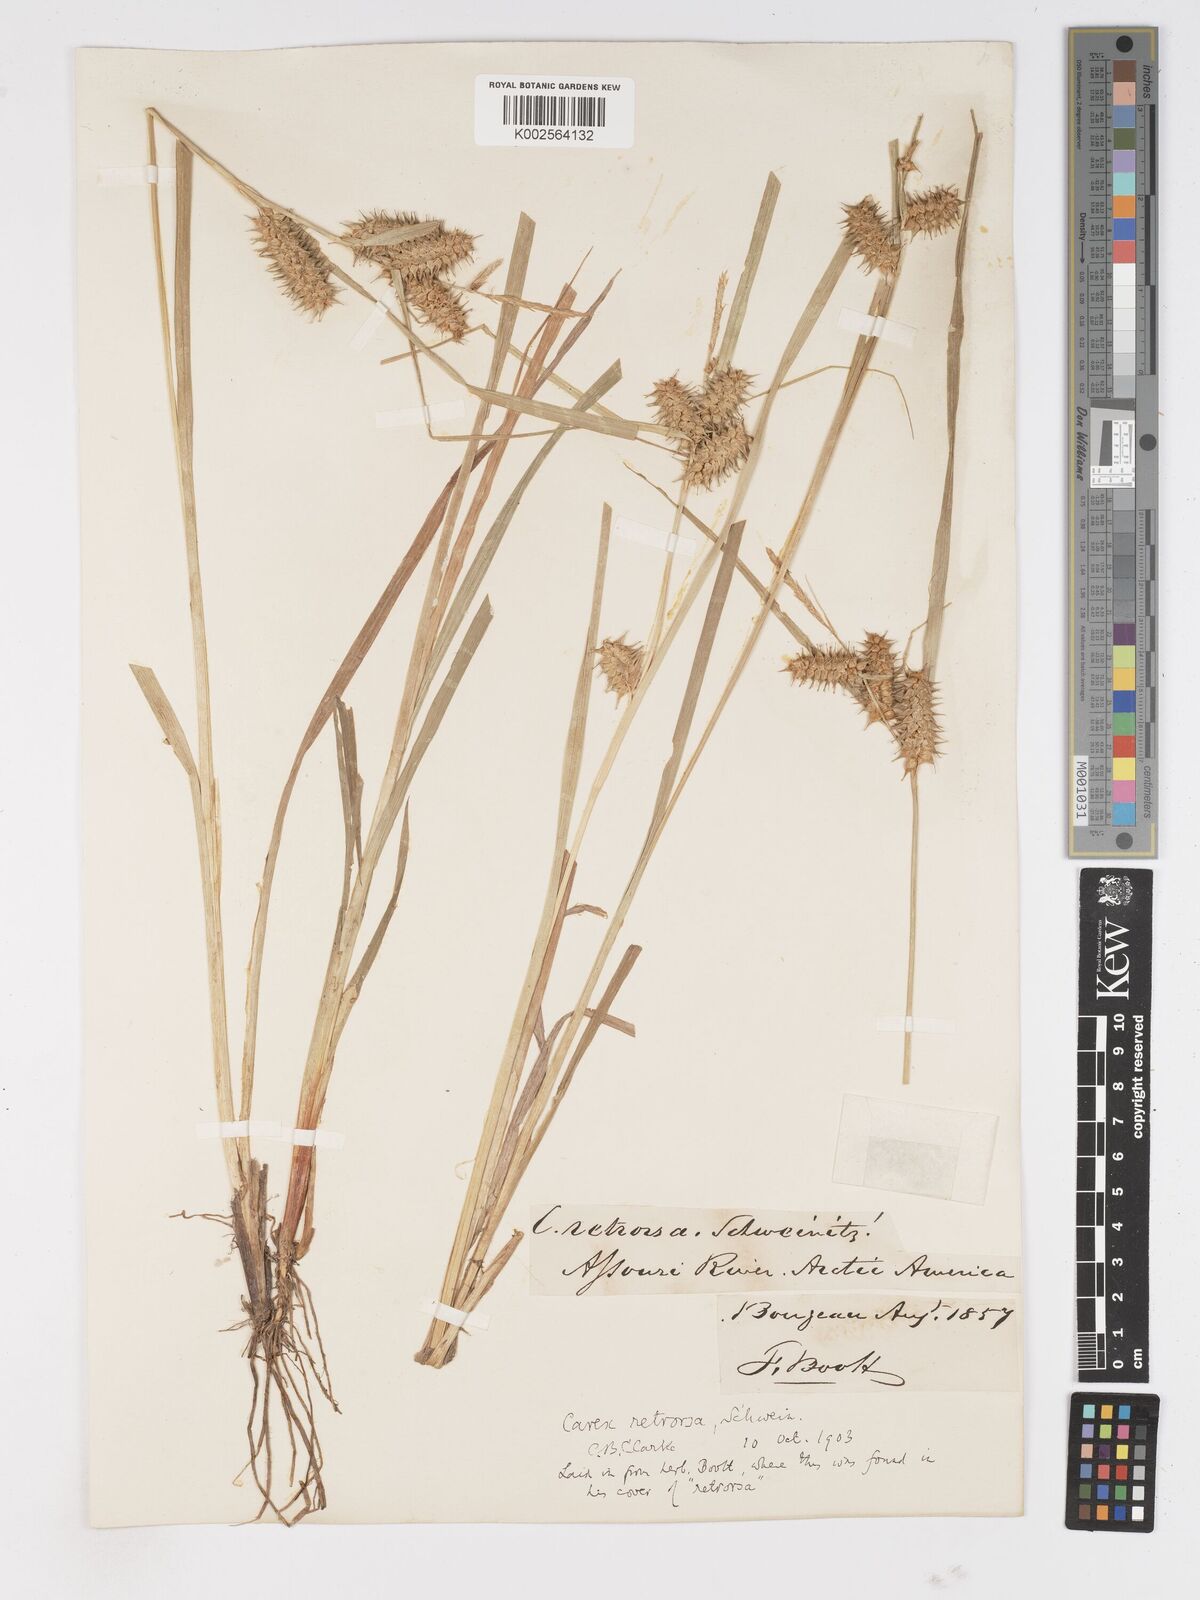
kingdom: Plantae
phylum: Tracheophyta
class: Liliopsida
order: Poales
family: Cyperaceae
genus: Carex
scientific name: Carex retrorsa
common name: Knot-sheath sedge
